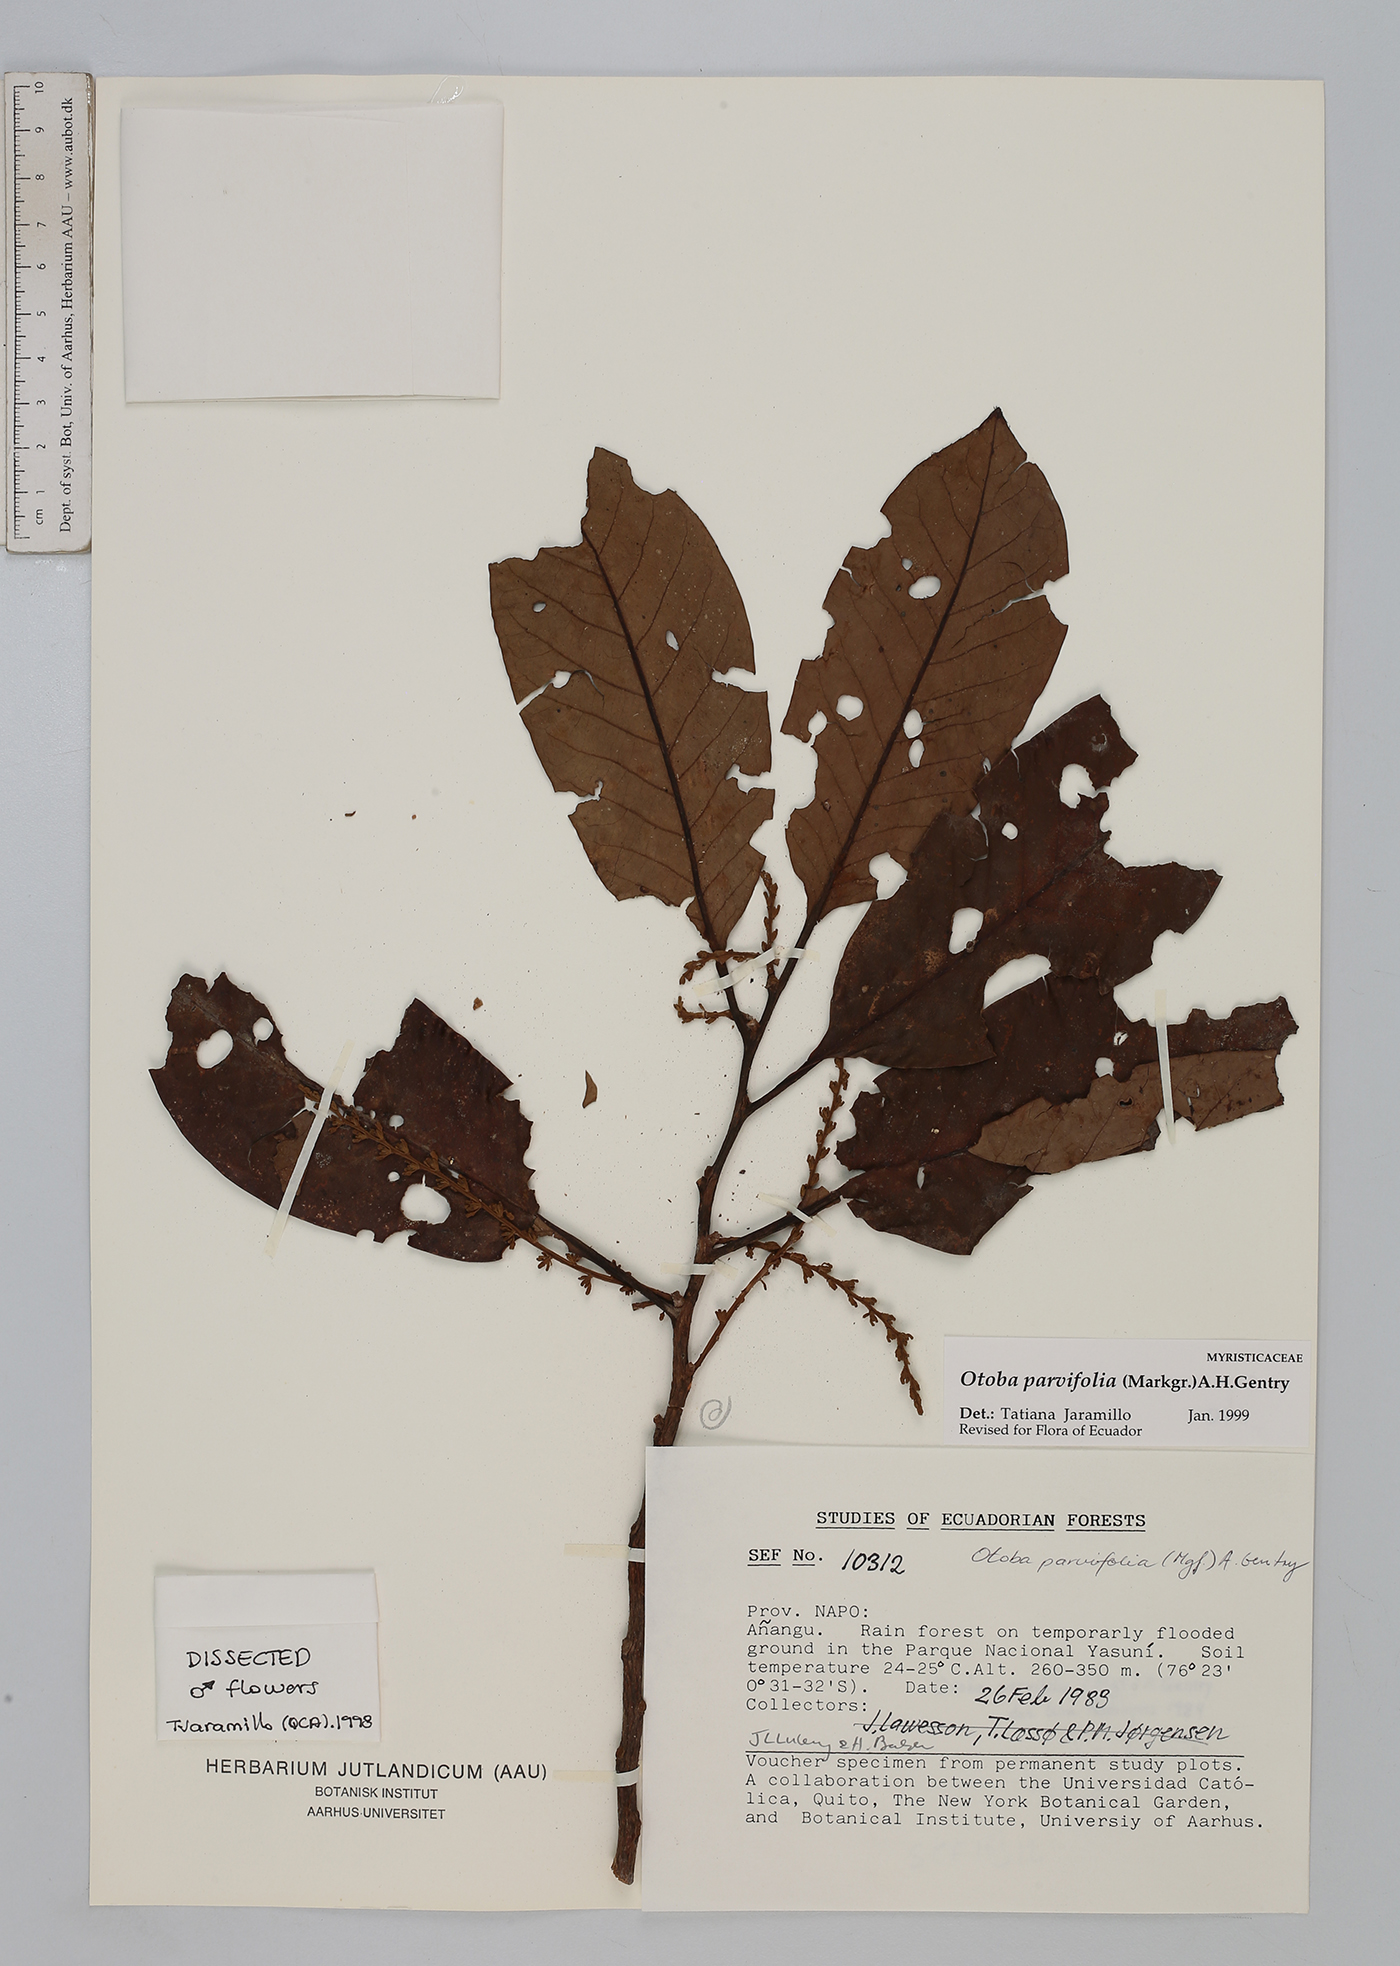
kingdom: Plantae
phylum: Tracheophyta
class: Magnoliopsida
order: Magnoliales
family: Myristicaceae
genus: Otoba
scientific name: Otoba parvifolia
